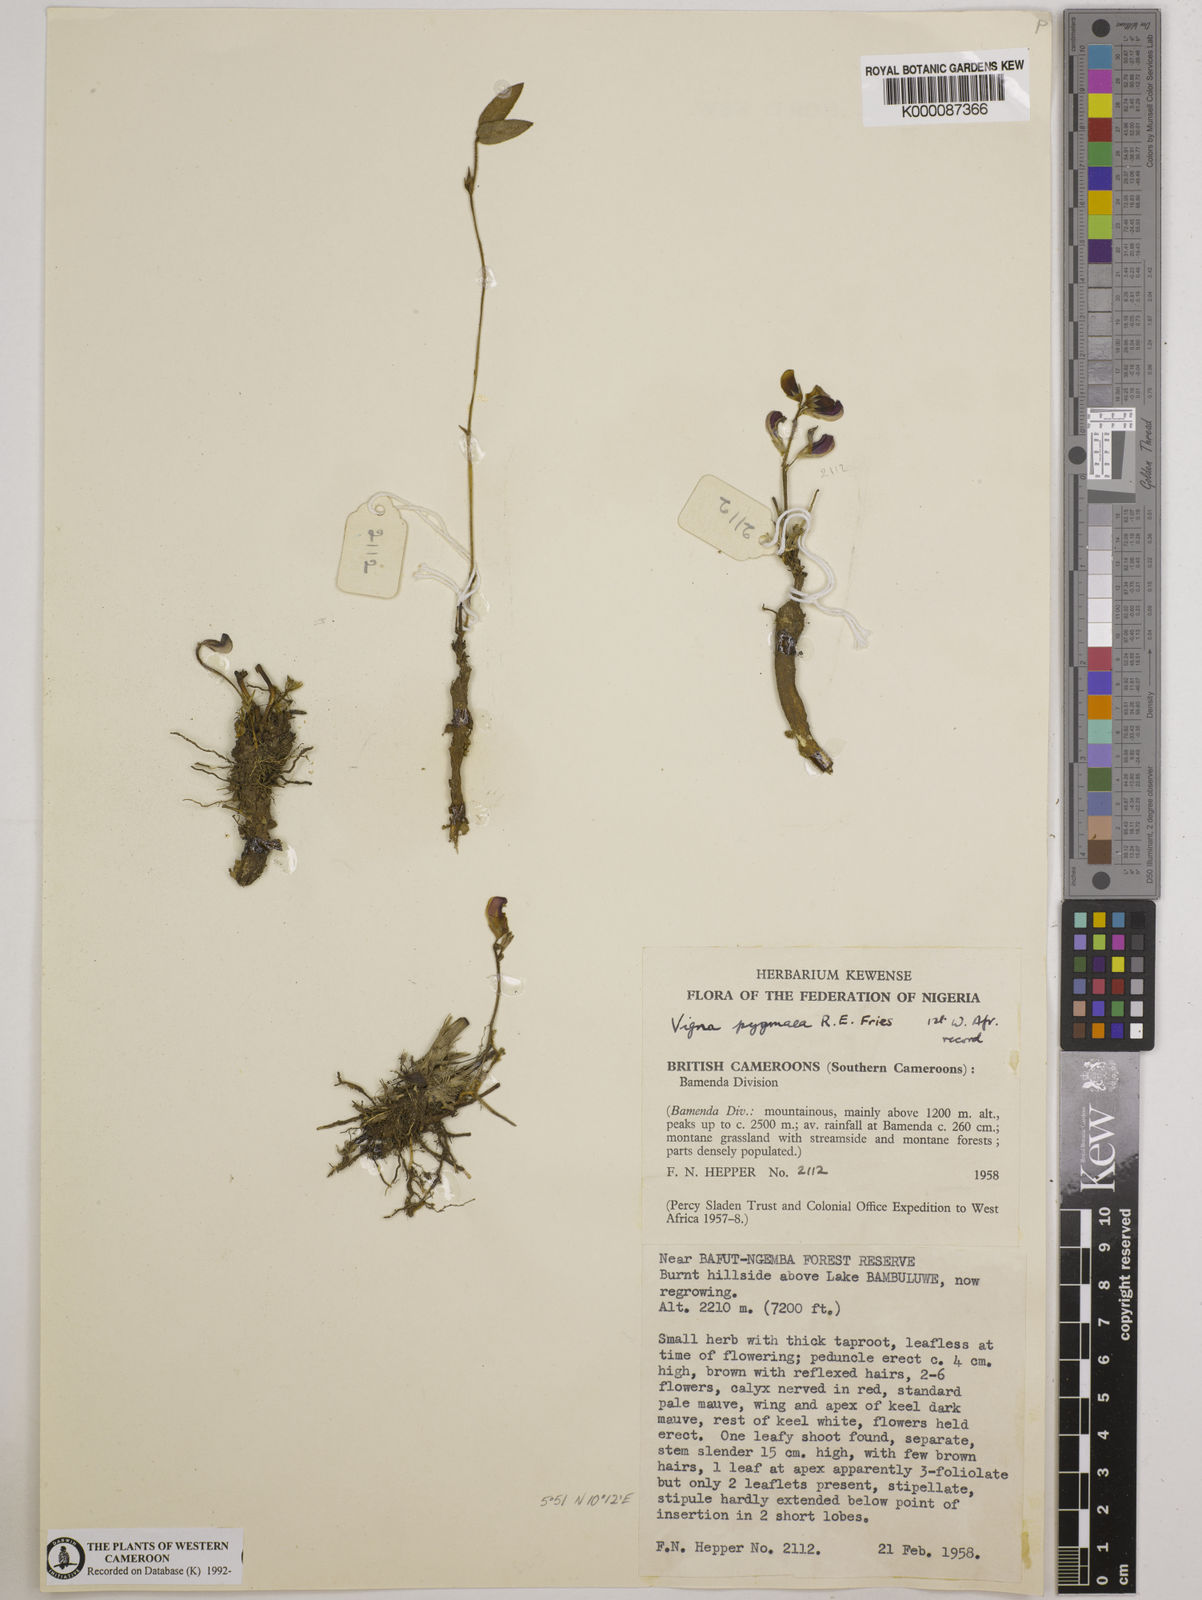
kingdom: Plantae
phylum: Tracheophyta
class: Magnoliopsida
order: Fabales
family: Fabaceae
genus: Vigna
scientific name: Vigna
